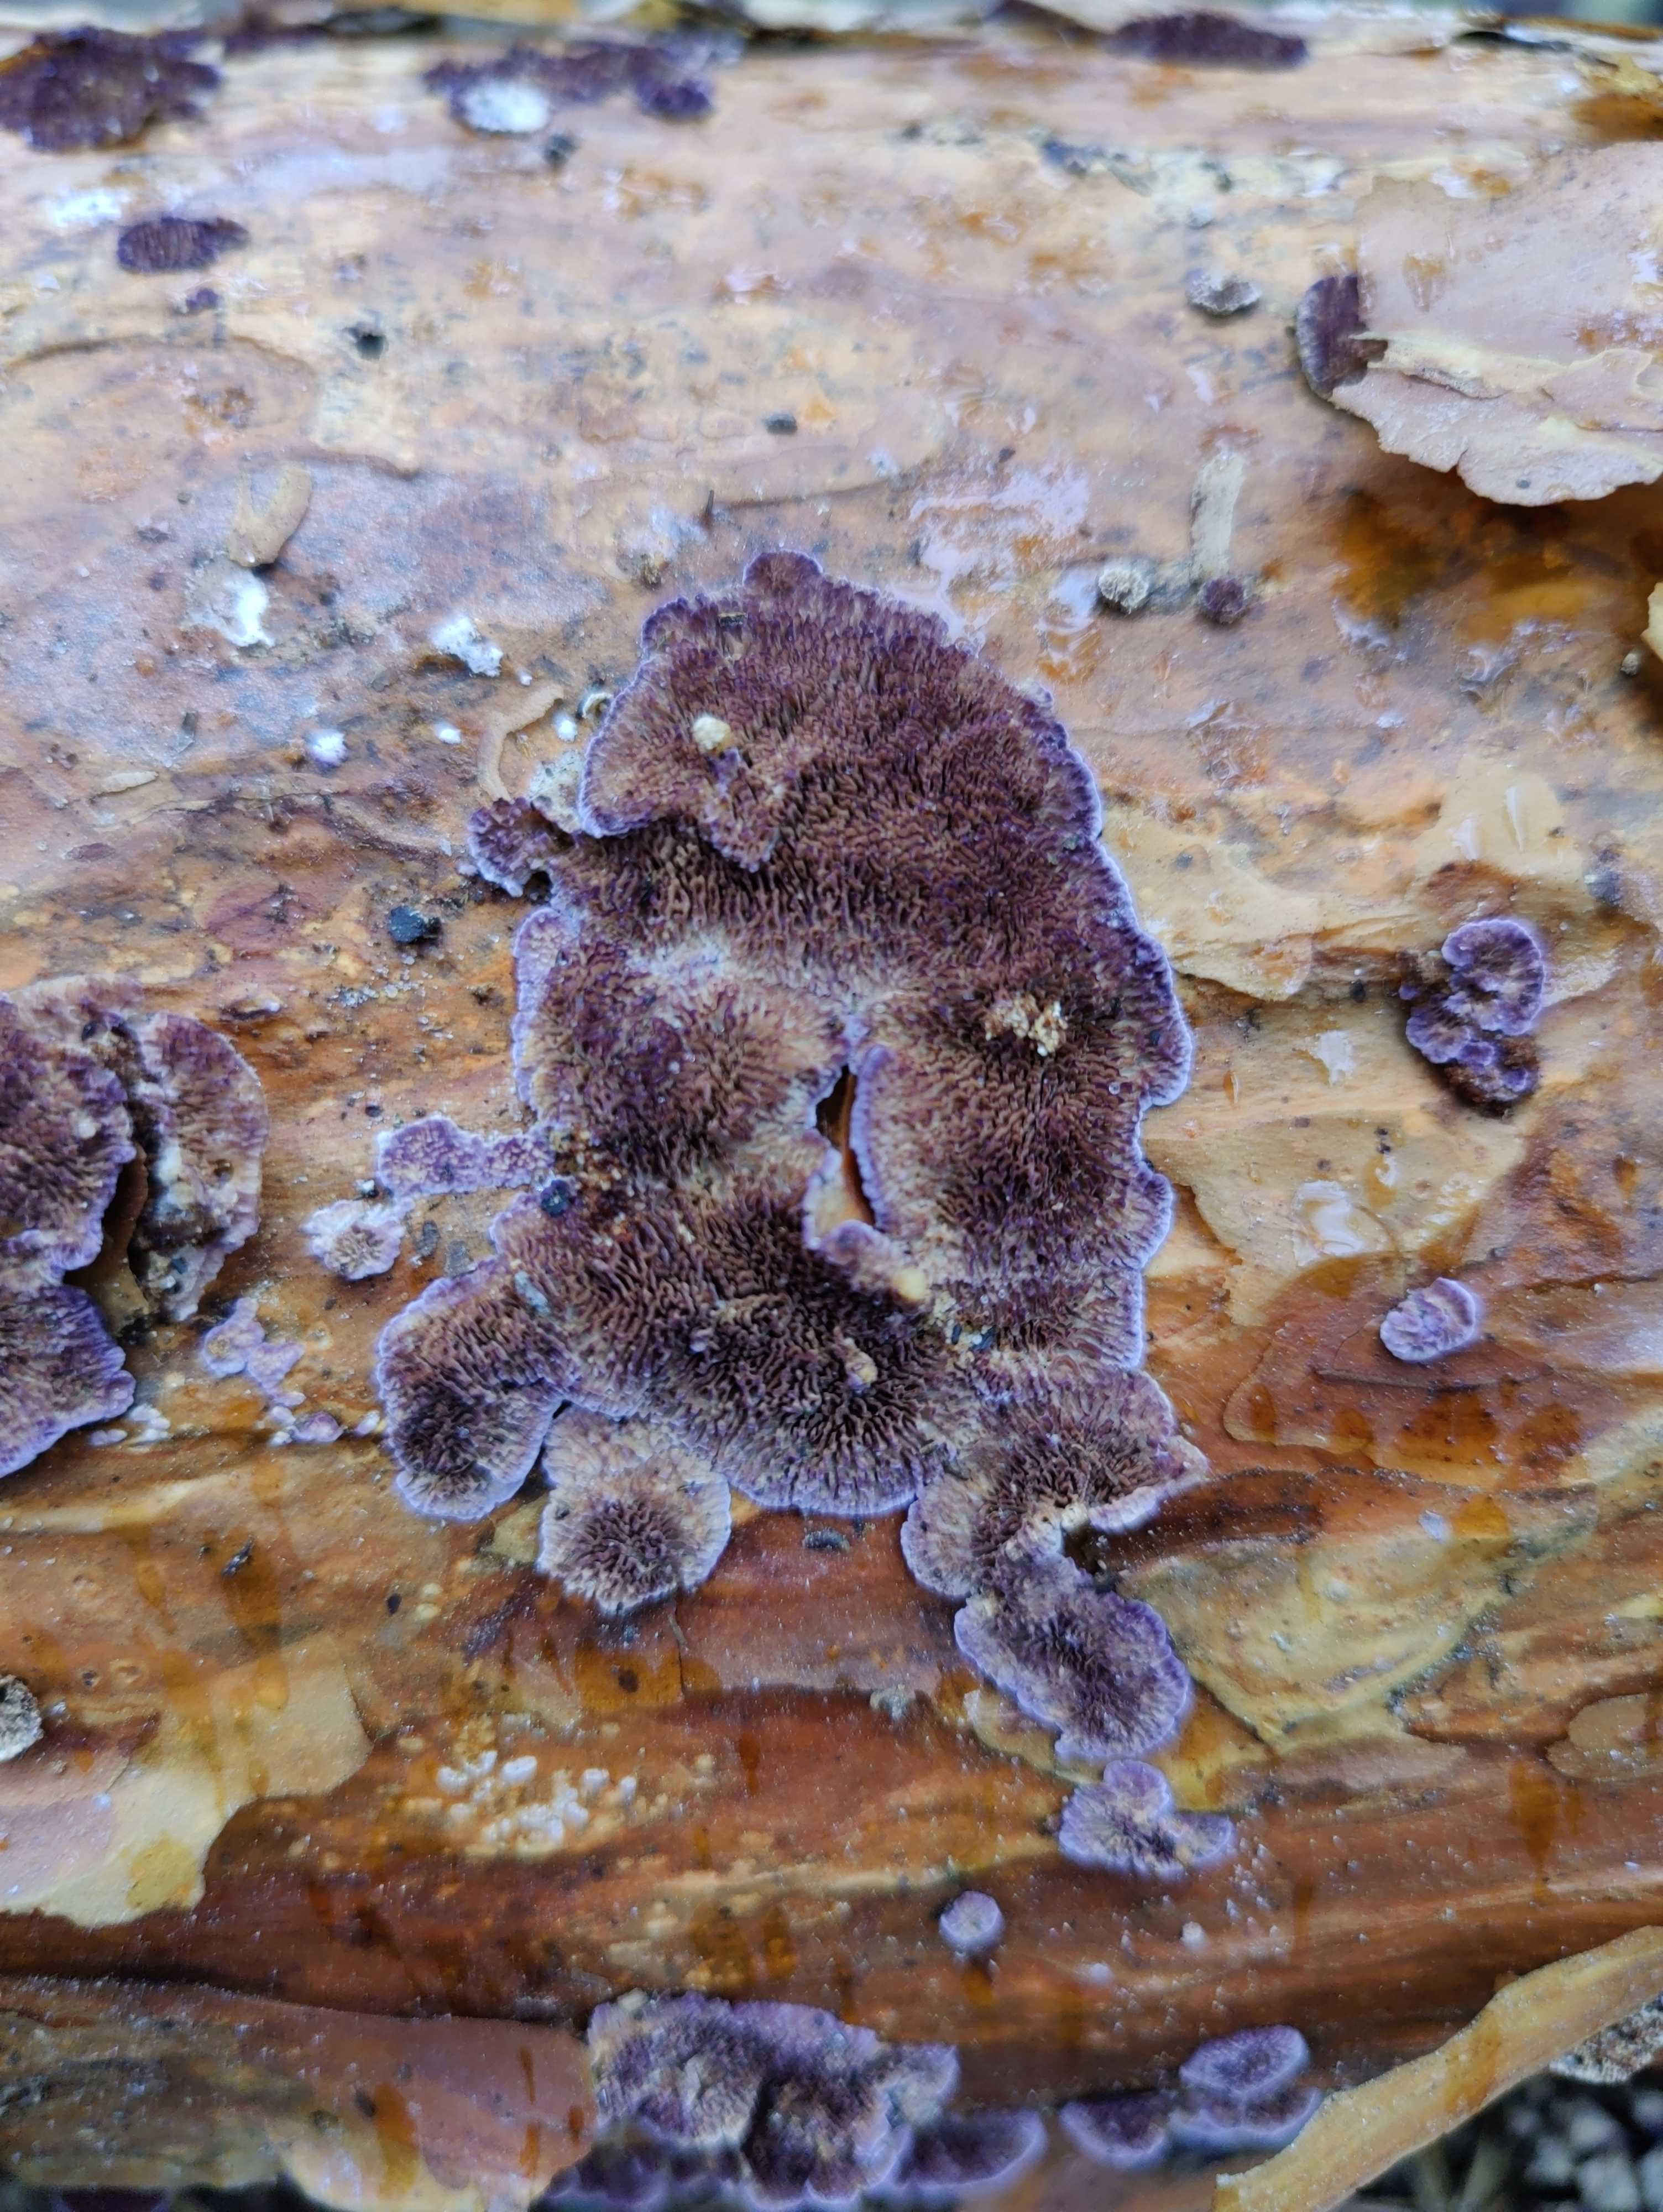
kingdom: Fungi
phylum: Basidiomycota
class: Agaricomycetes
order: Hymenochaetales
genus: Trichaptum
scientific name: Trichaptum fuscoviolaceum
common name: tandet violporesvamp
